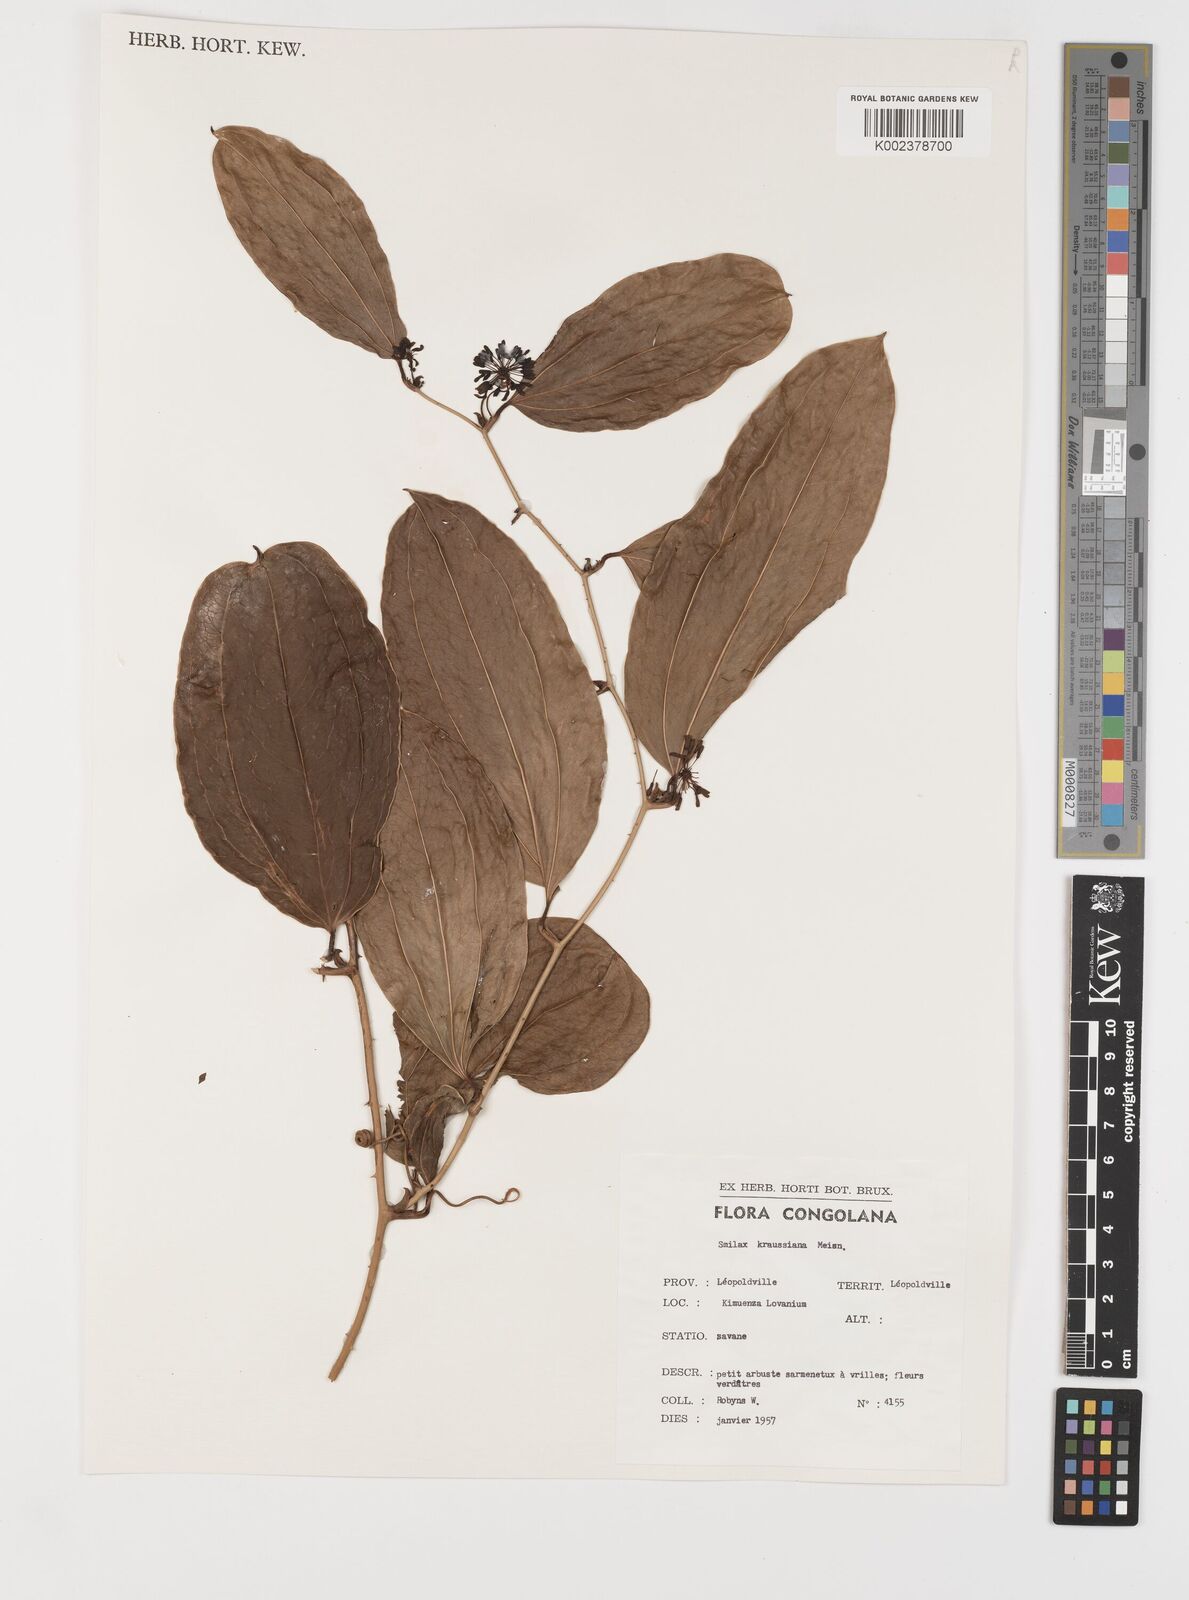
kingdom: Plantae
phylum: Tracheophyta
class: Liliopsida
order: Liliales
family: Smilacaceae
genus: Smilax
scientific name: Smilax anceps
